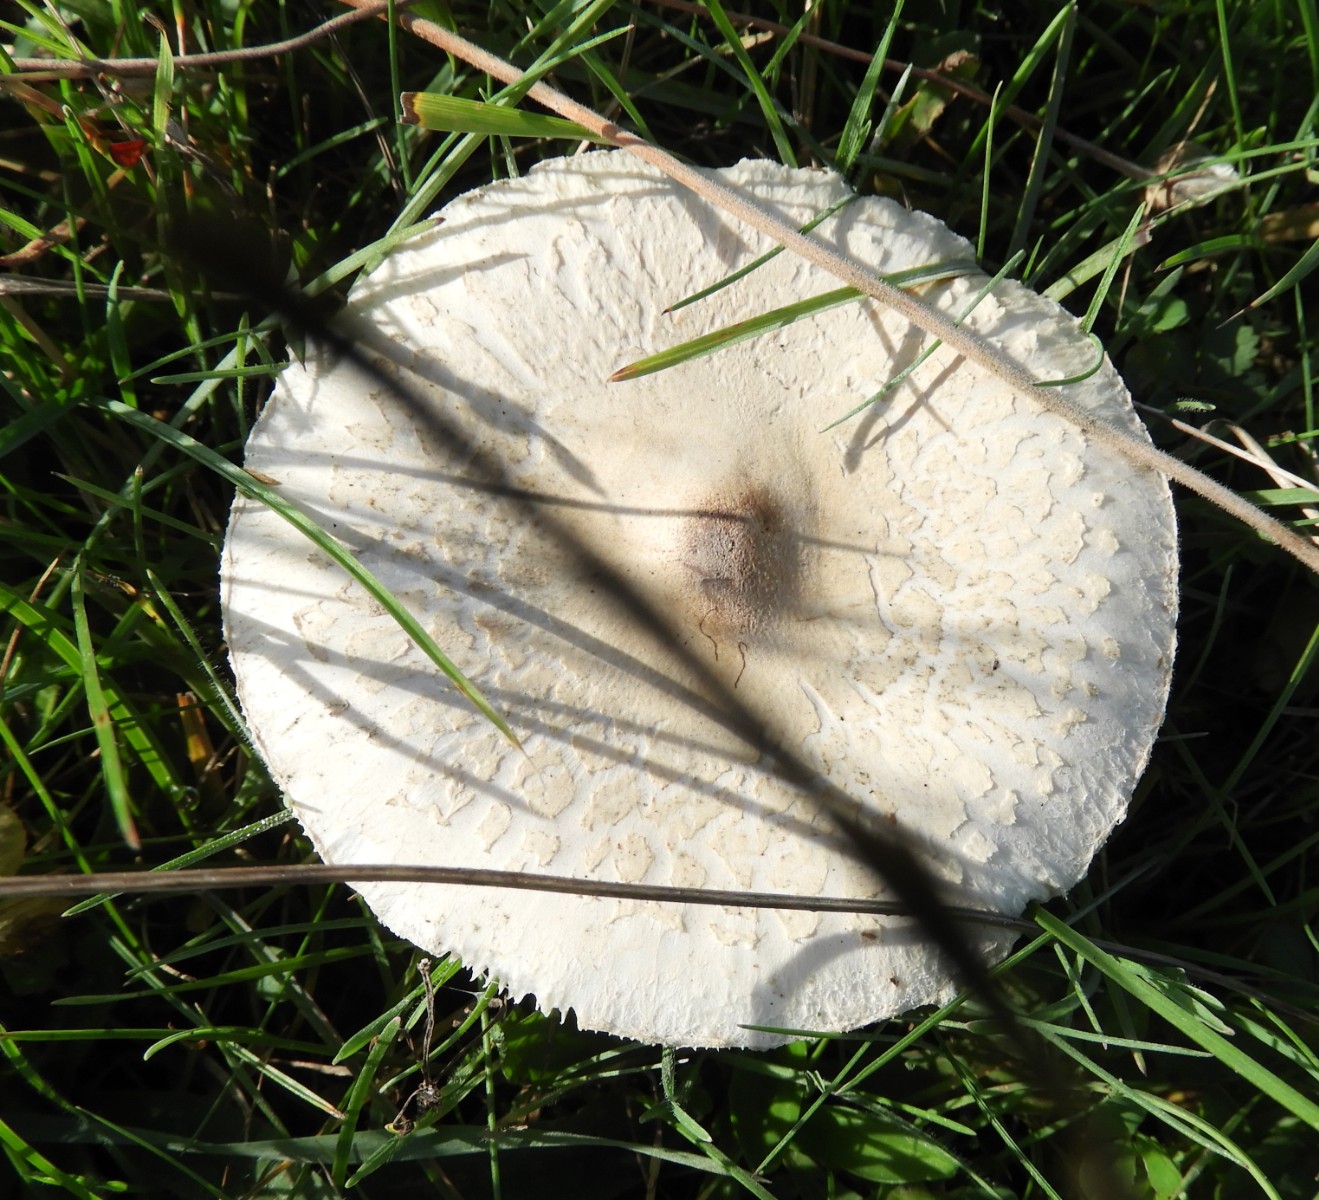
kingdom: Fungi
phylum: Basidiomycota
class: Agaricomycetes
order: Agaricales
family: Agaricaceae
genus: Macrolepiota
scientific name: Macrolepiota excoriata
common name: mark-kæmpeparasolhat
